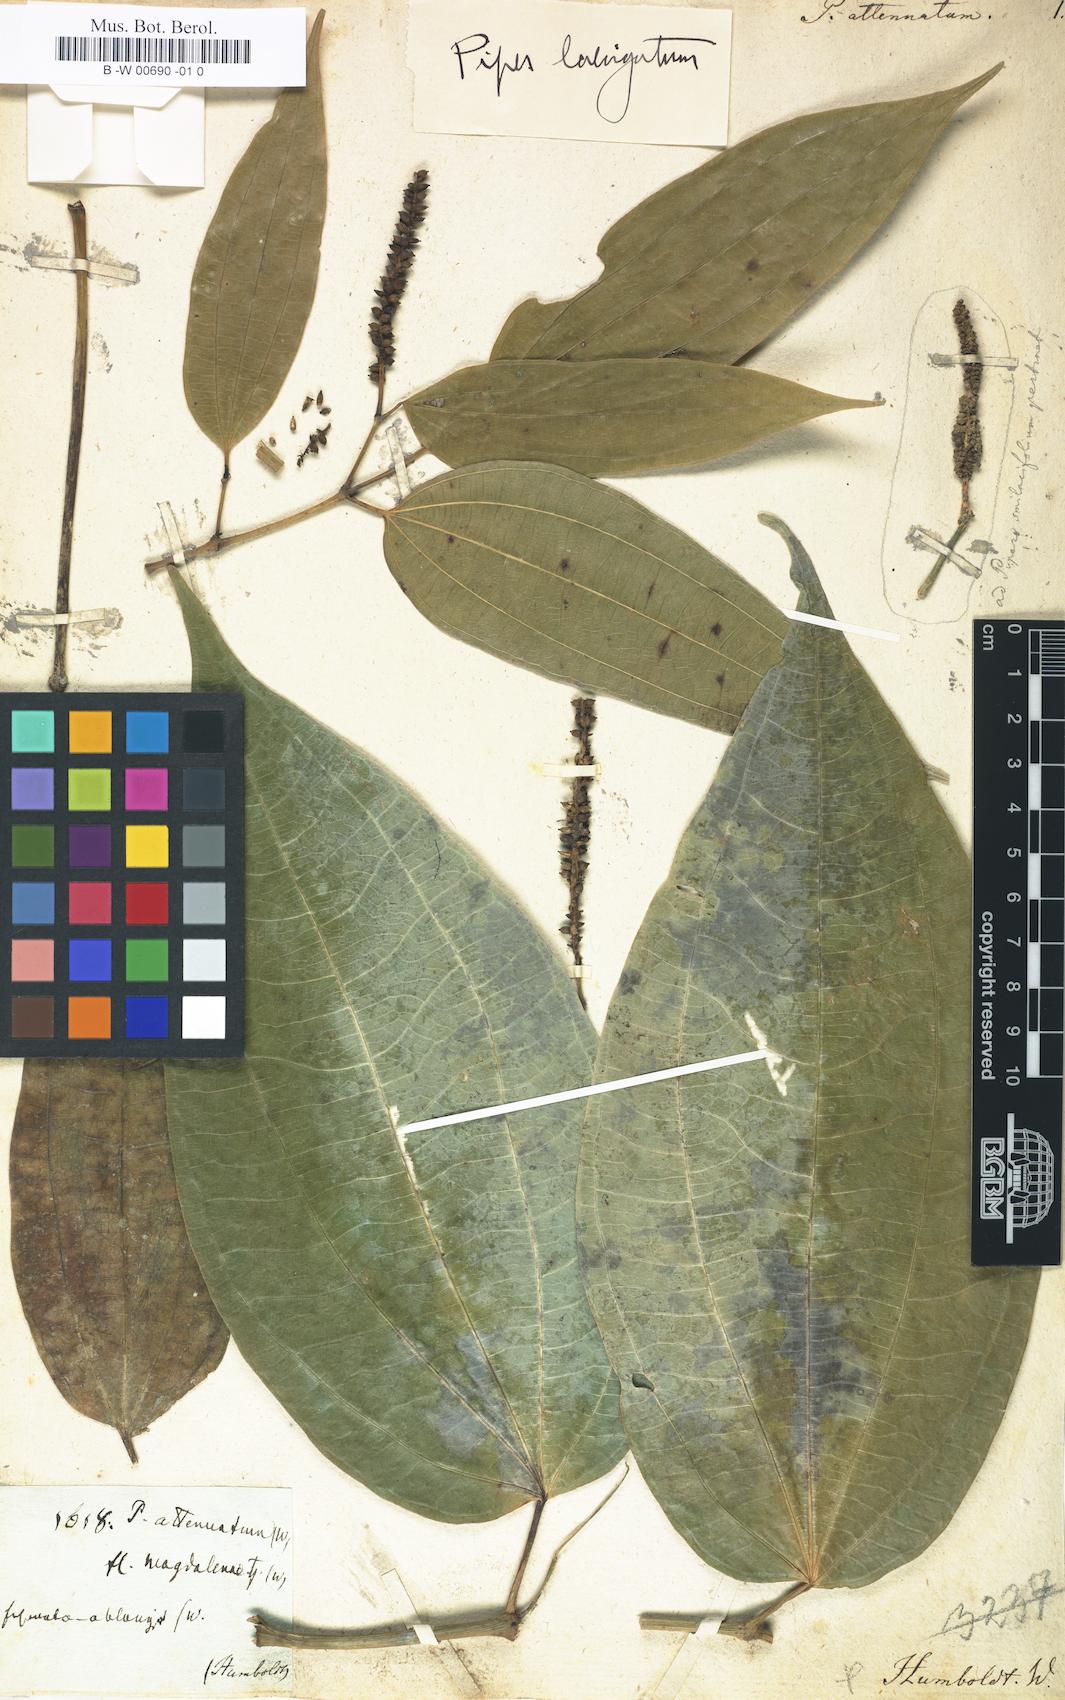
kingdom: Plantae
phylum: Tracheophyta
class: Magnoliopsida
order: Piperales
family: Piperaceae
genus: Piper
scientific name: Piper laevigatum
